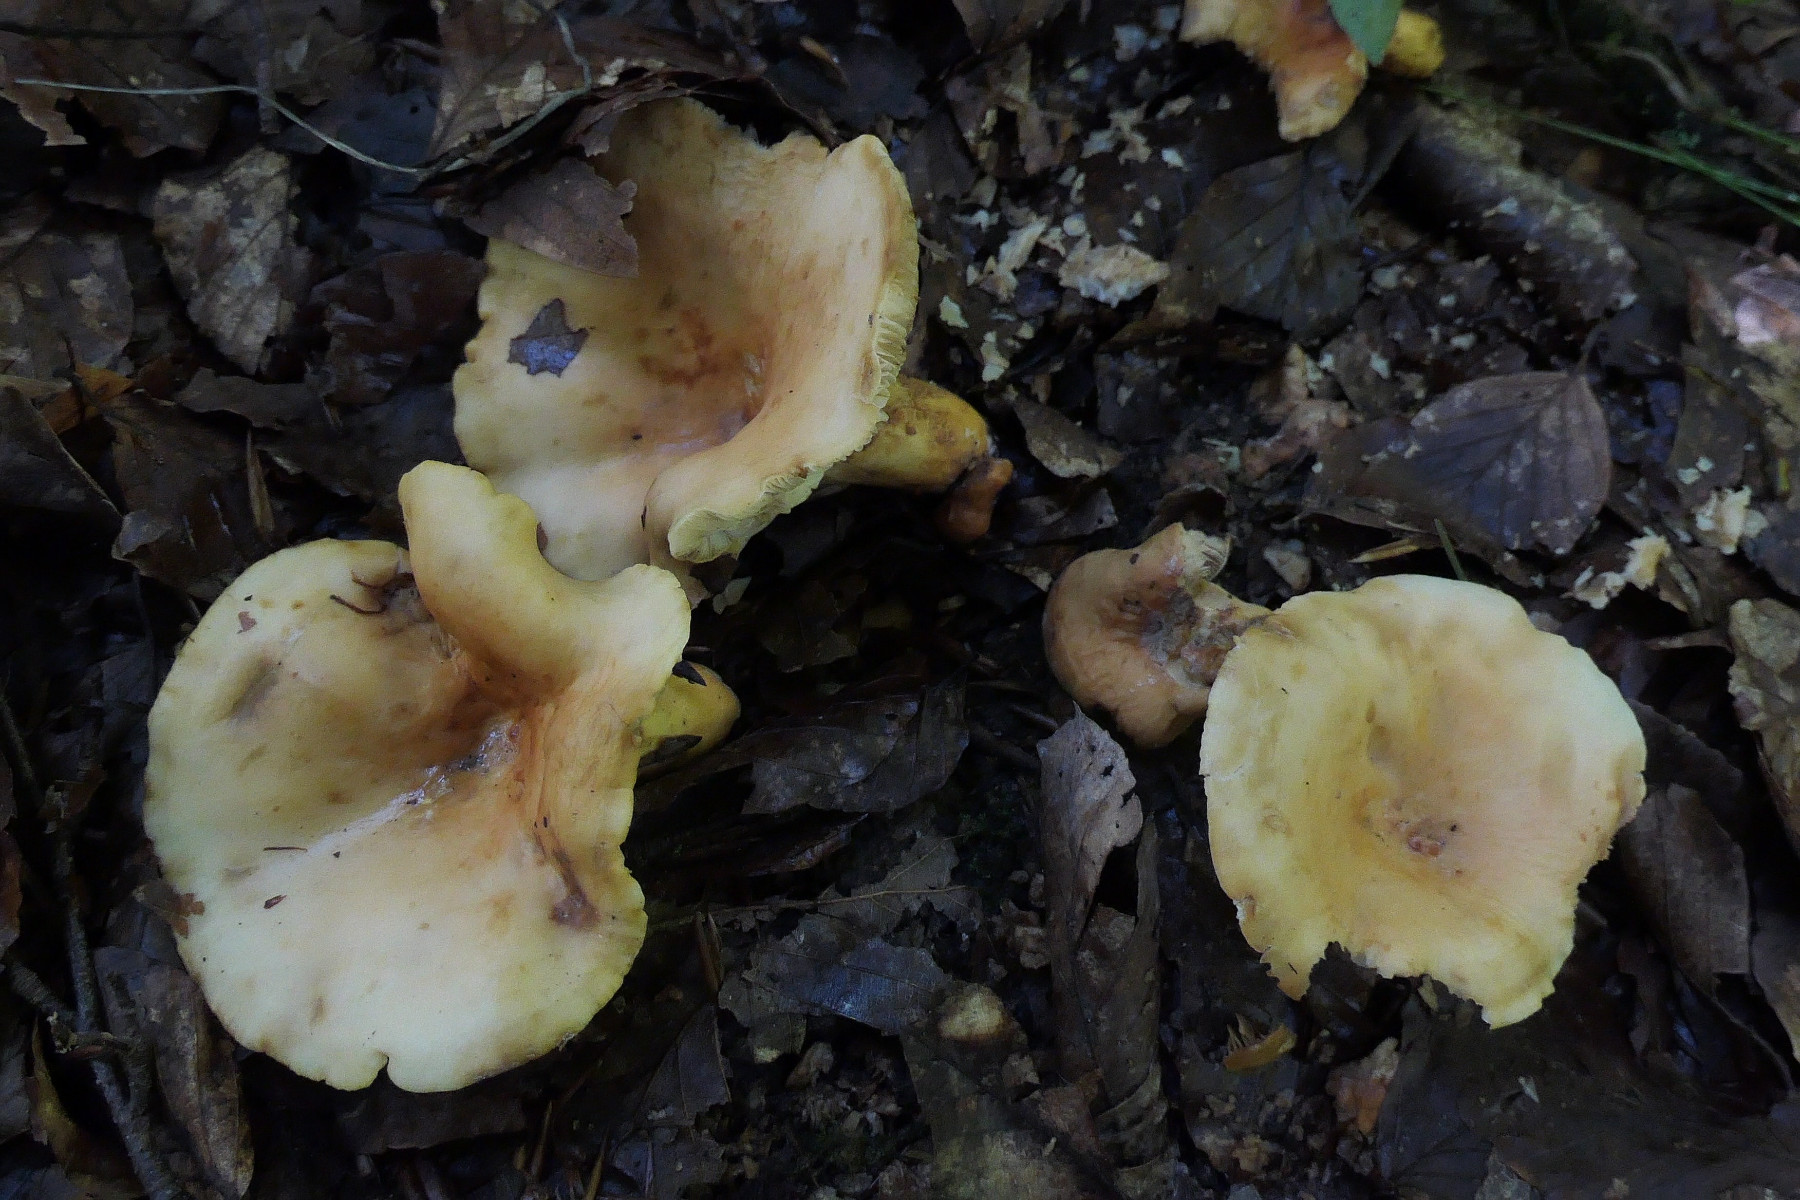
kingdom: Fungi
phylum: Basidiomycota
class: Agaricomycetes
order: Russulales
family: Russulaceae
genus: Lactifluus
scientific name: Lactifluus subvolemus
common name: hummer-mælkehat
